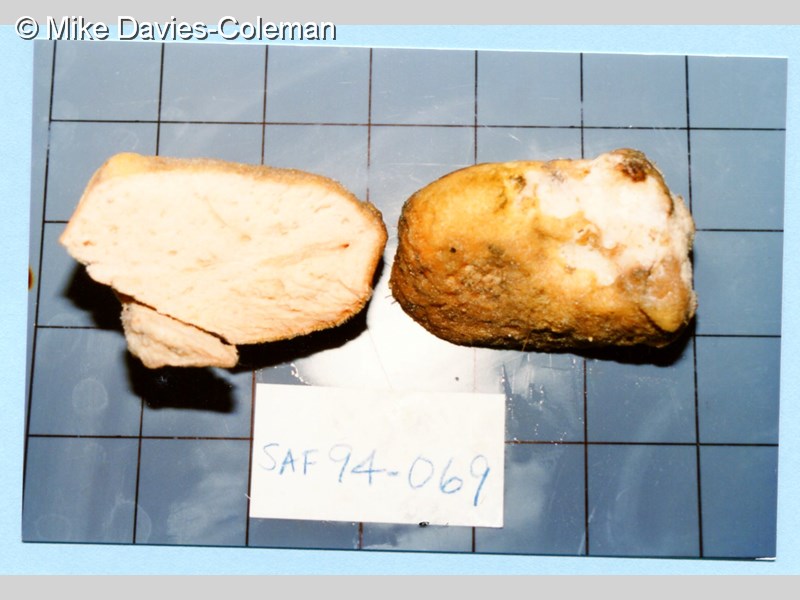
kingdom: Animalia
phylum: Porifera
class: Demospongiae
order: Tetractinellida
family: Ancorinidae
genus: Asteropus
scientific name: Asteropus
